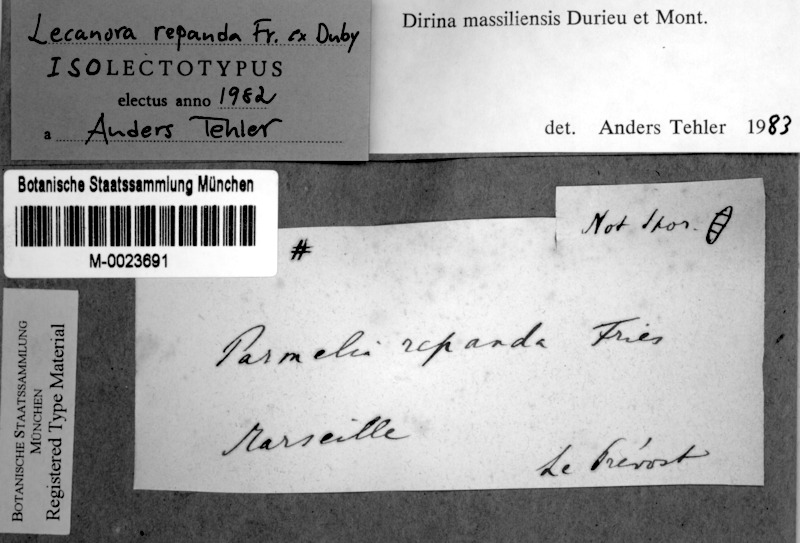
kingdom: Fungi
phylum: Ascomycota
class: Arthoniomycetes
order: Arthoniales
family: Roccellaceae
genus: Dirina
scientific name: Dirina massiliensis
